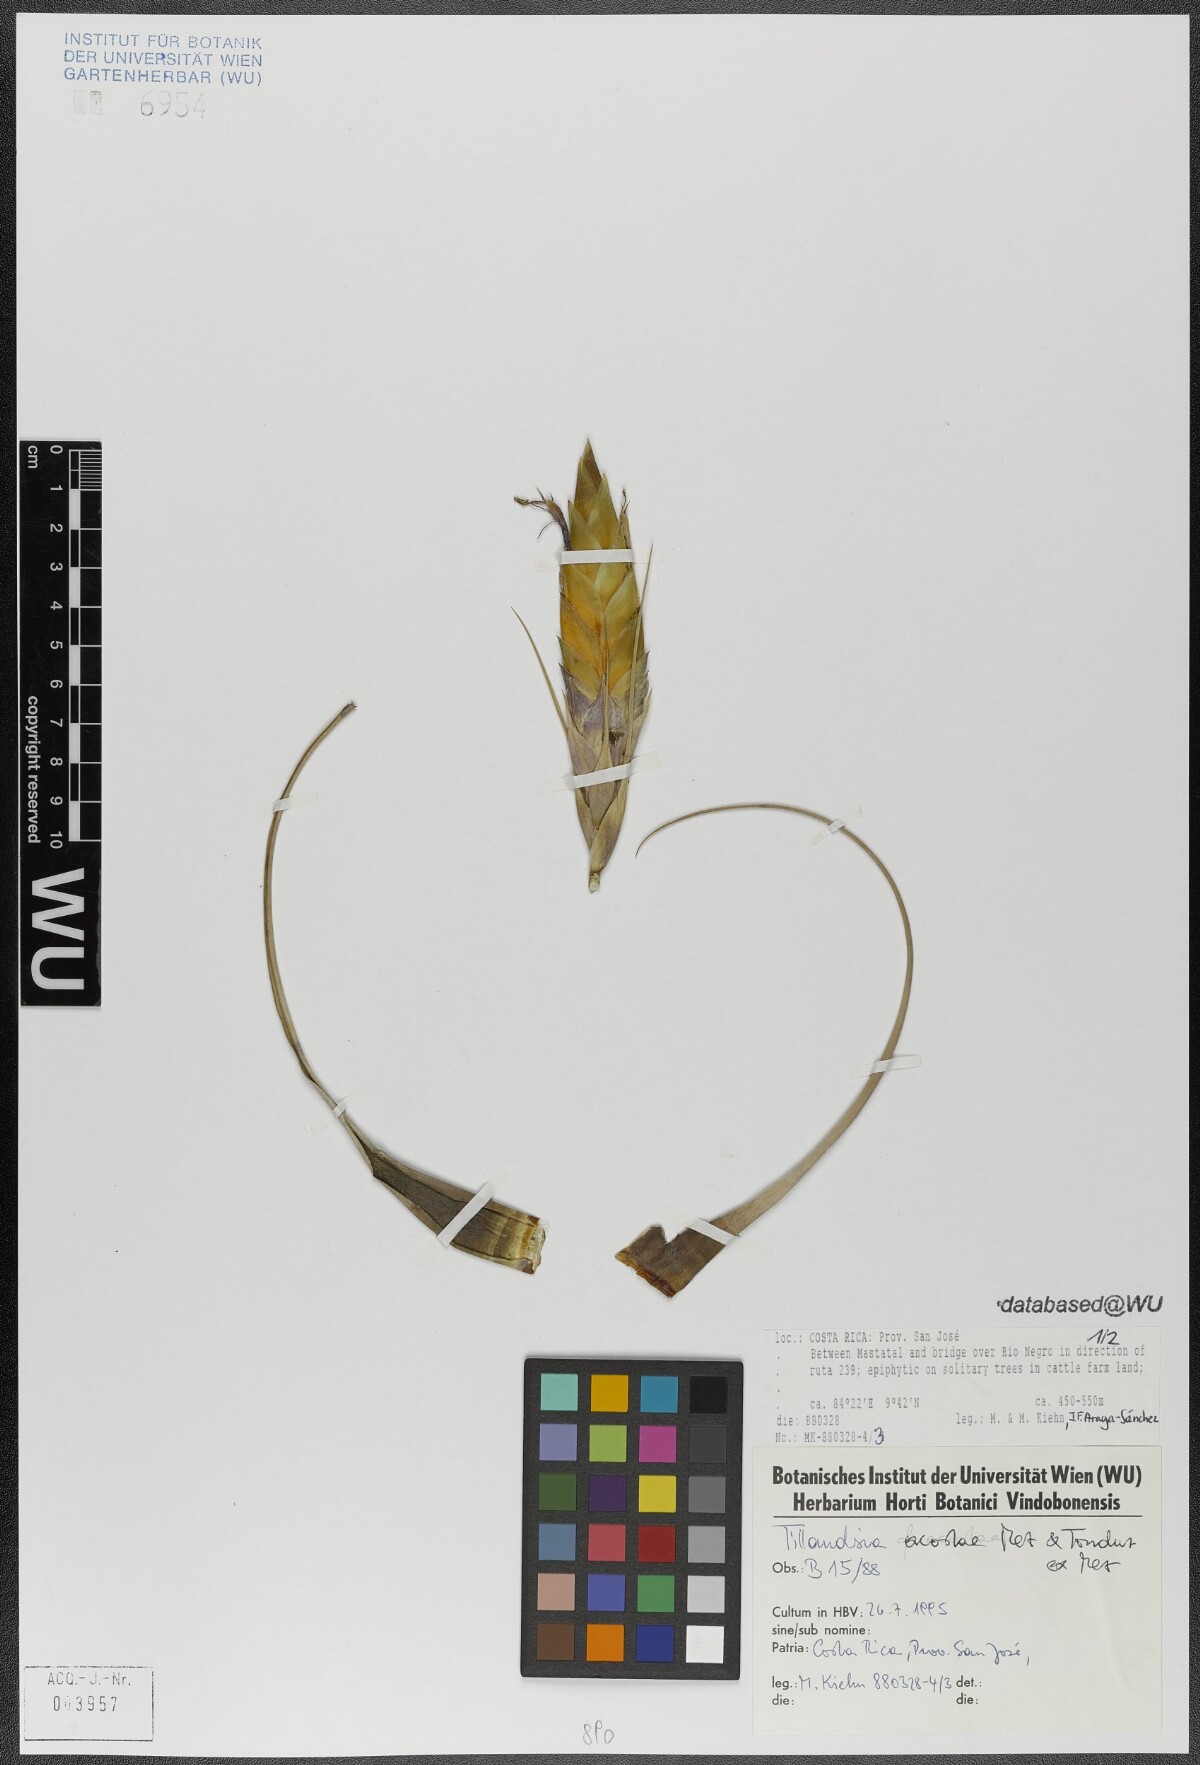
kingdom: Plantae
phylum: Tracheophyta
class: Liliopsida
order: Poales
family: Bromeliaceae
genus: Tillandsia
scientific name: Tillandsia rhomboidea
